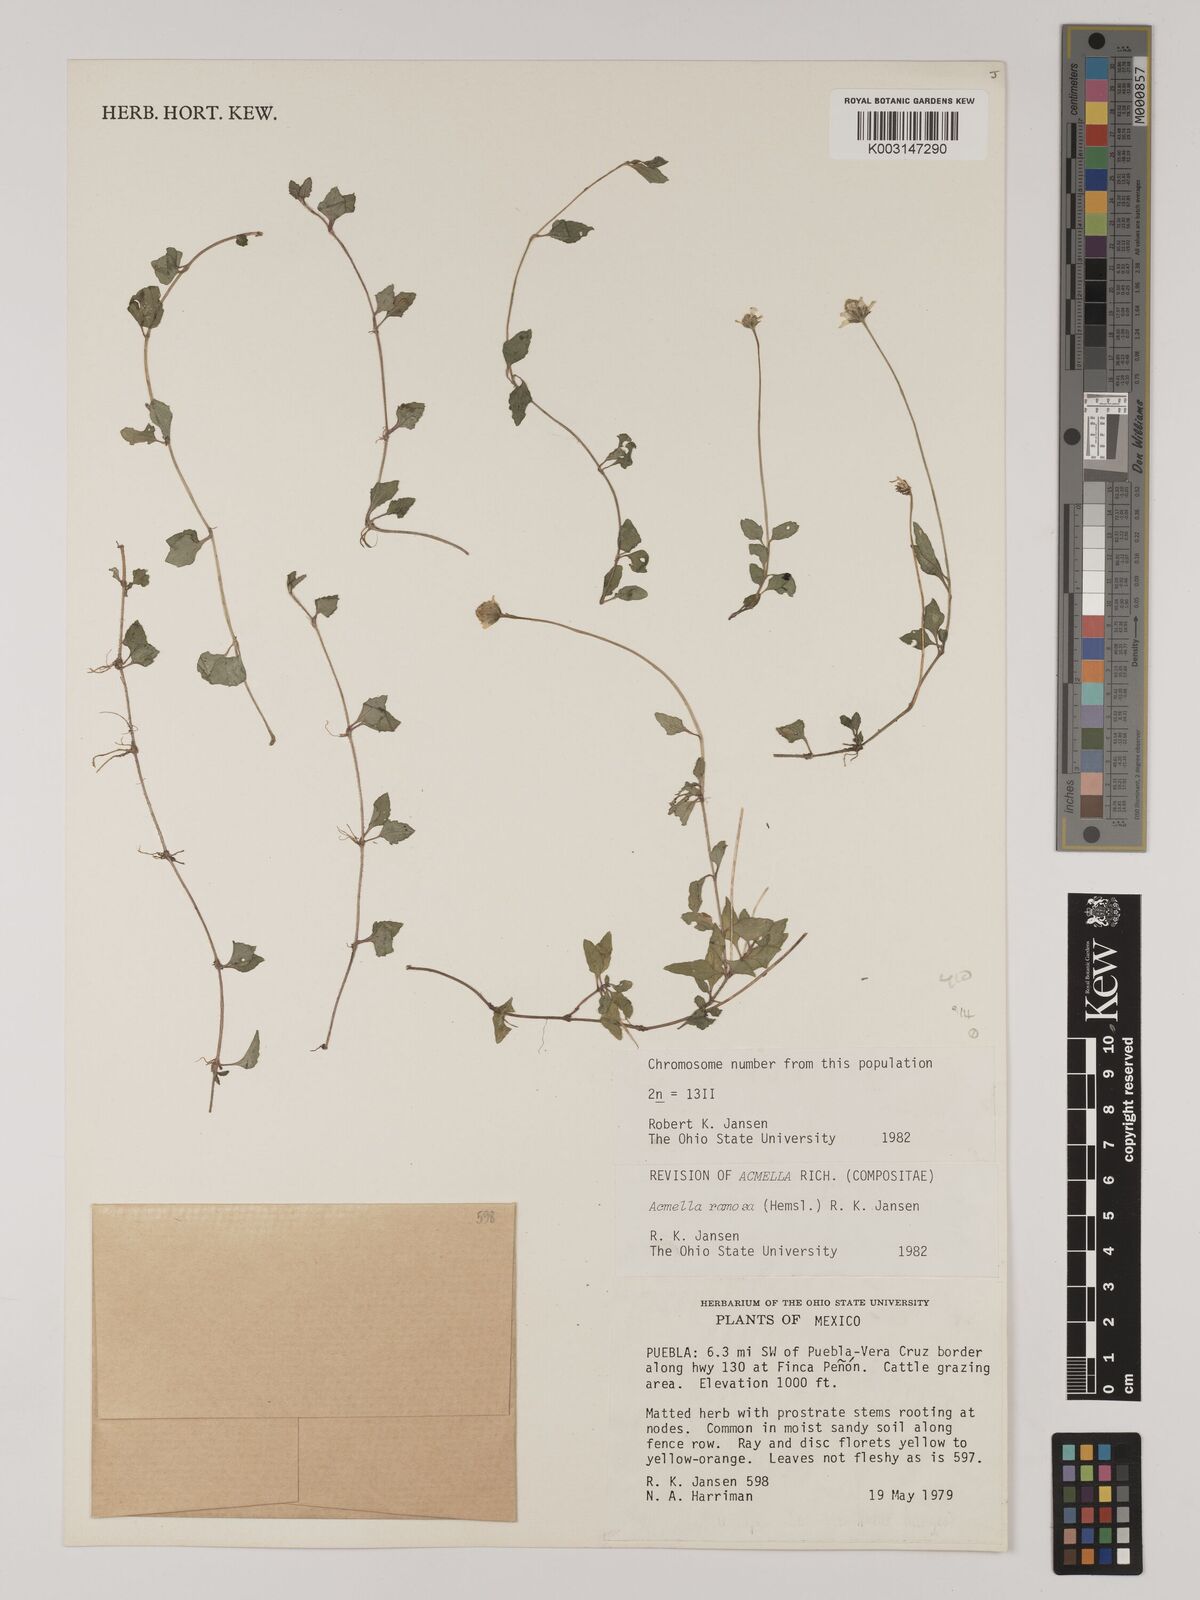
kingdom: Plantae
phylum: Tracheophyta
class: Magnoliopsida
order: Asterales
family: Asteraceae
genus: Acmella
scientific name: Acmella ramosa
